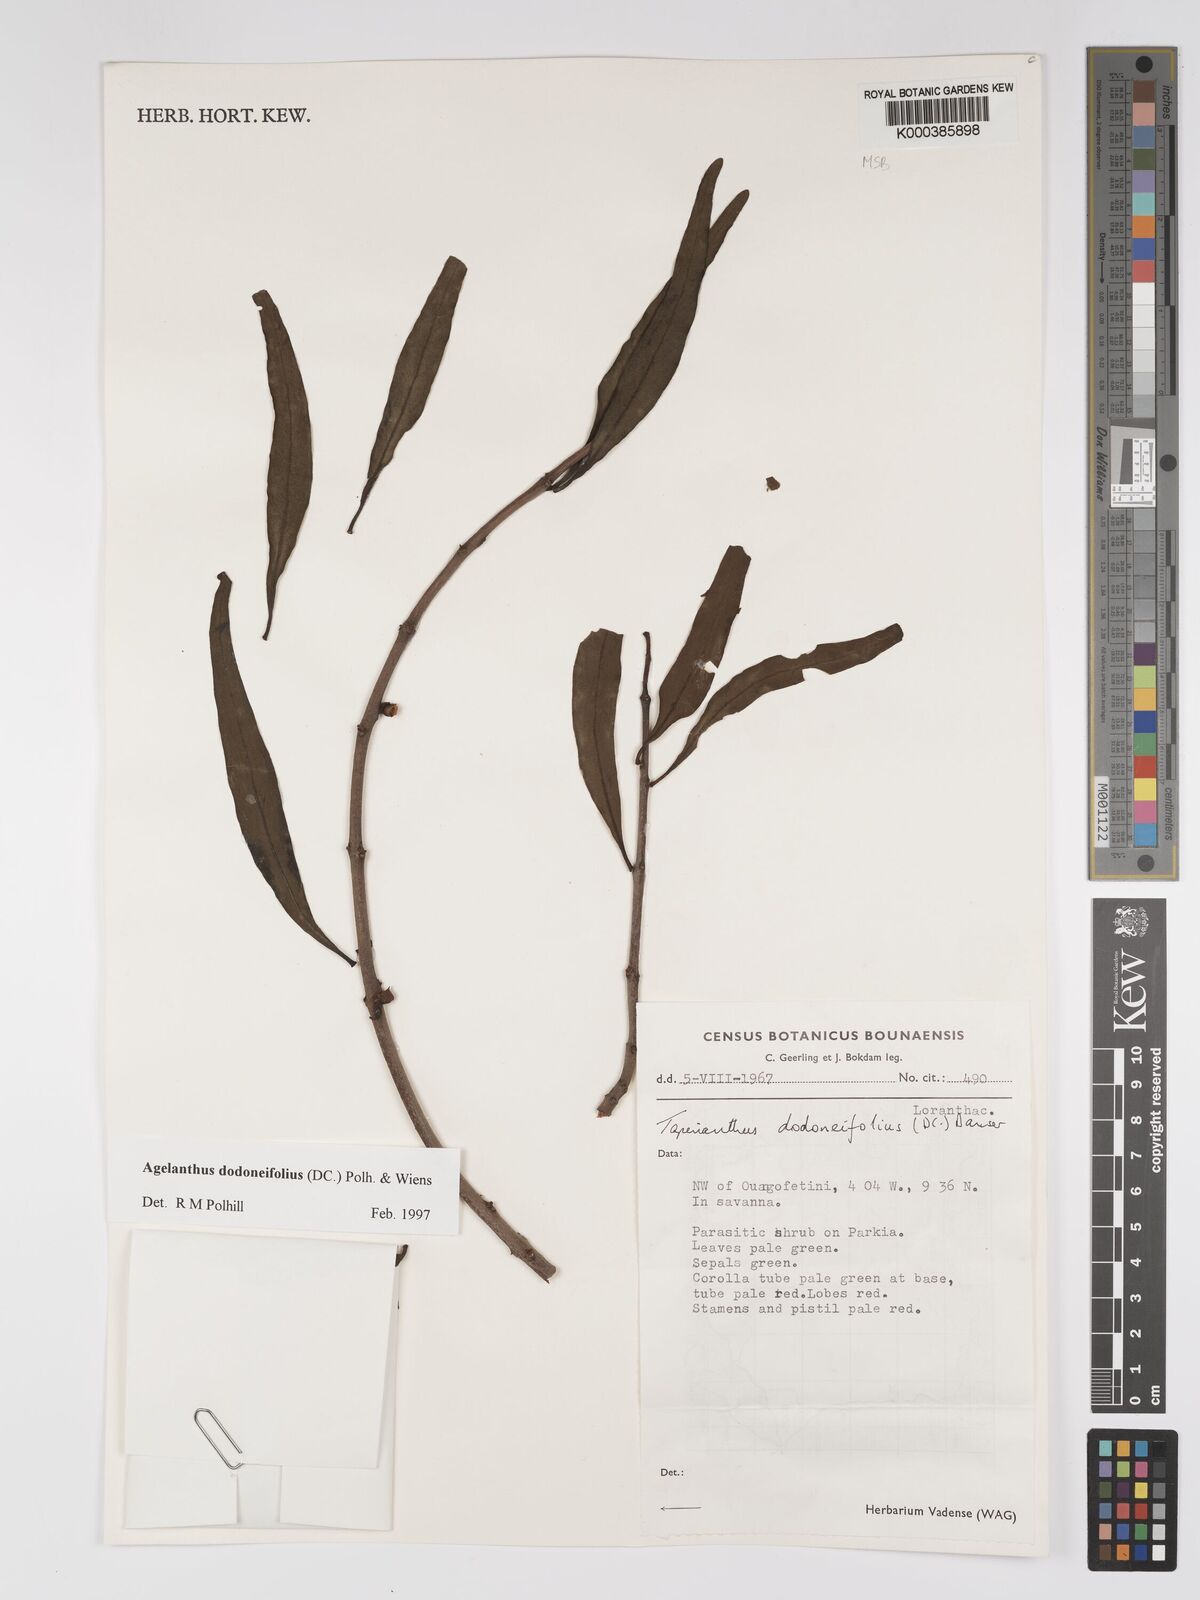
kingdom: Plantae
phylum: Tracheophyta
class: Magnoliopsida
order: Santalales
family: Loranthaceae
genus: Agelanthus
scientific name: Agelanthus dodoneifolius
